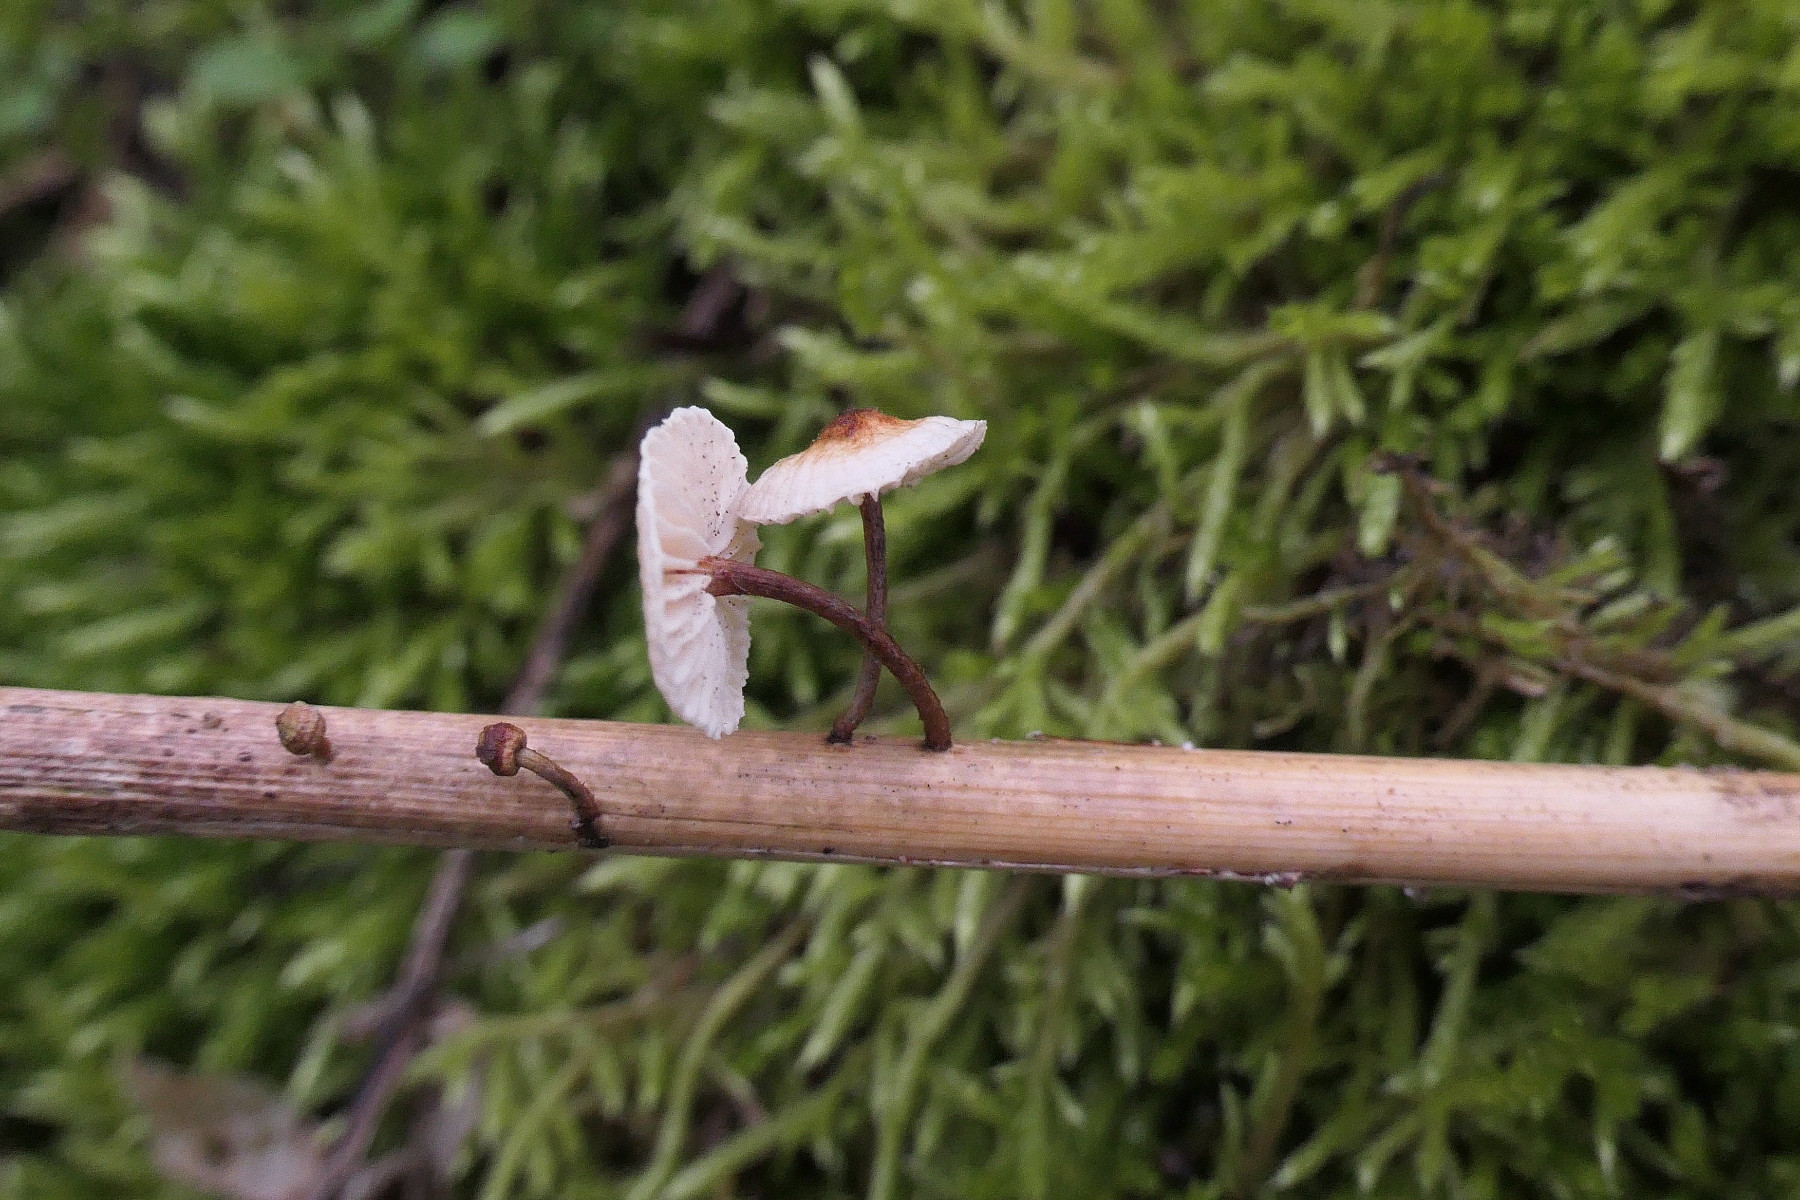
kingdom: Fungi
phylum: Basidiomycota
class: Agaricomycetes
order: Agaricales
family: Marasmiaceae
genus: Crinipellis
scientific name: Crinipellis scabella
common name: børstefod
